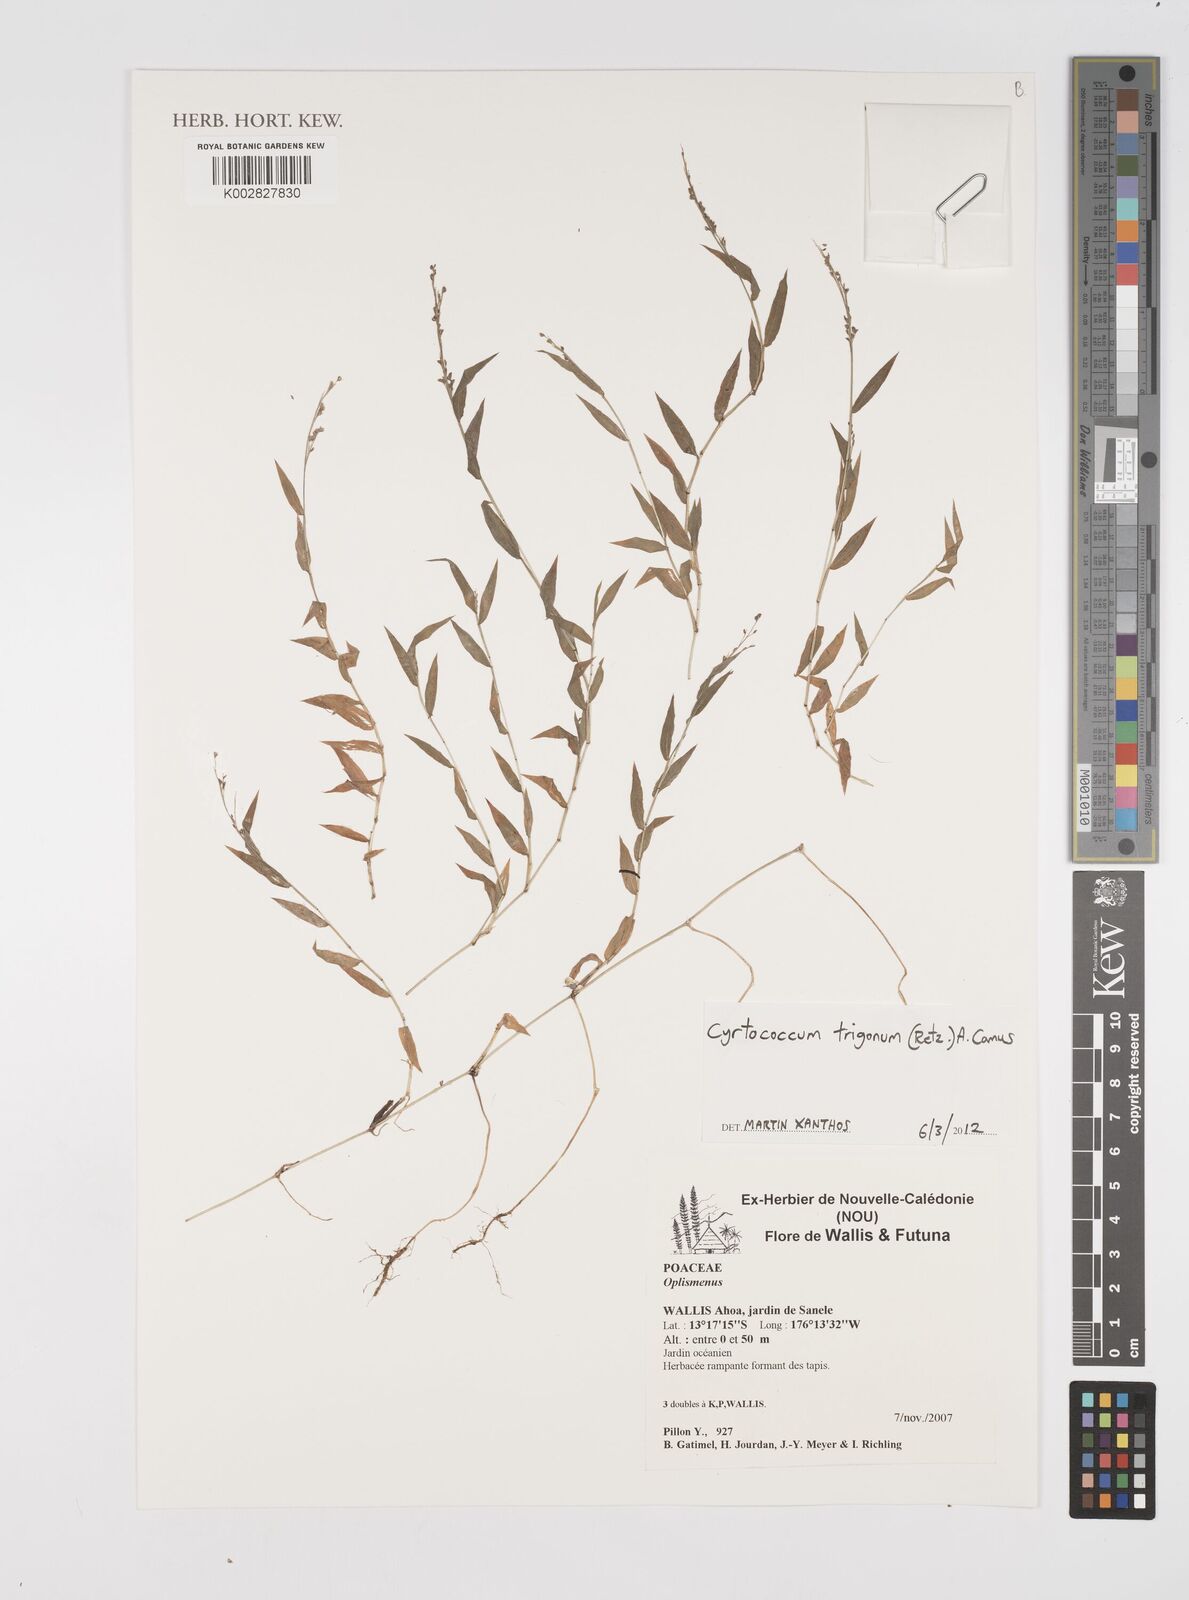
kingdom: Plantae
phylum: Tracheophyta
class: Liliopsida
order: Poales
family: Poaceae
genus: Cyrtococcum
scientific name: Cyrtococcum trigonum
